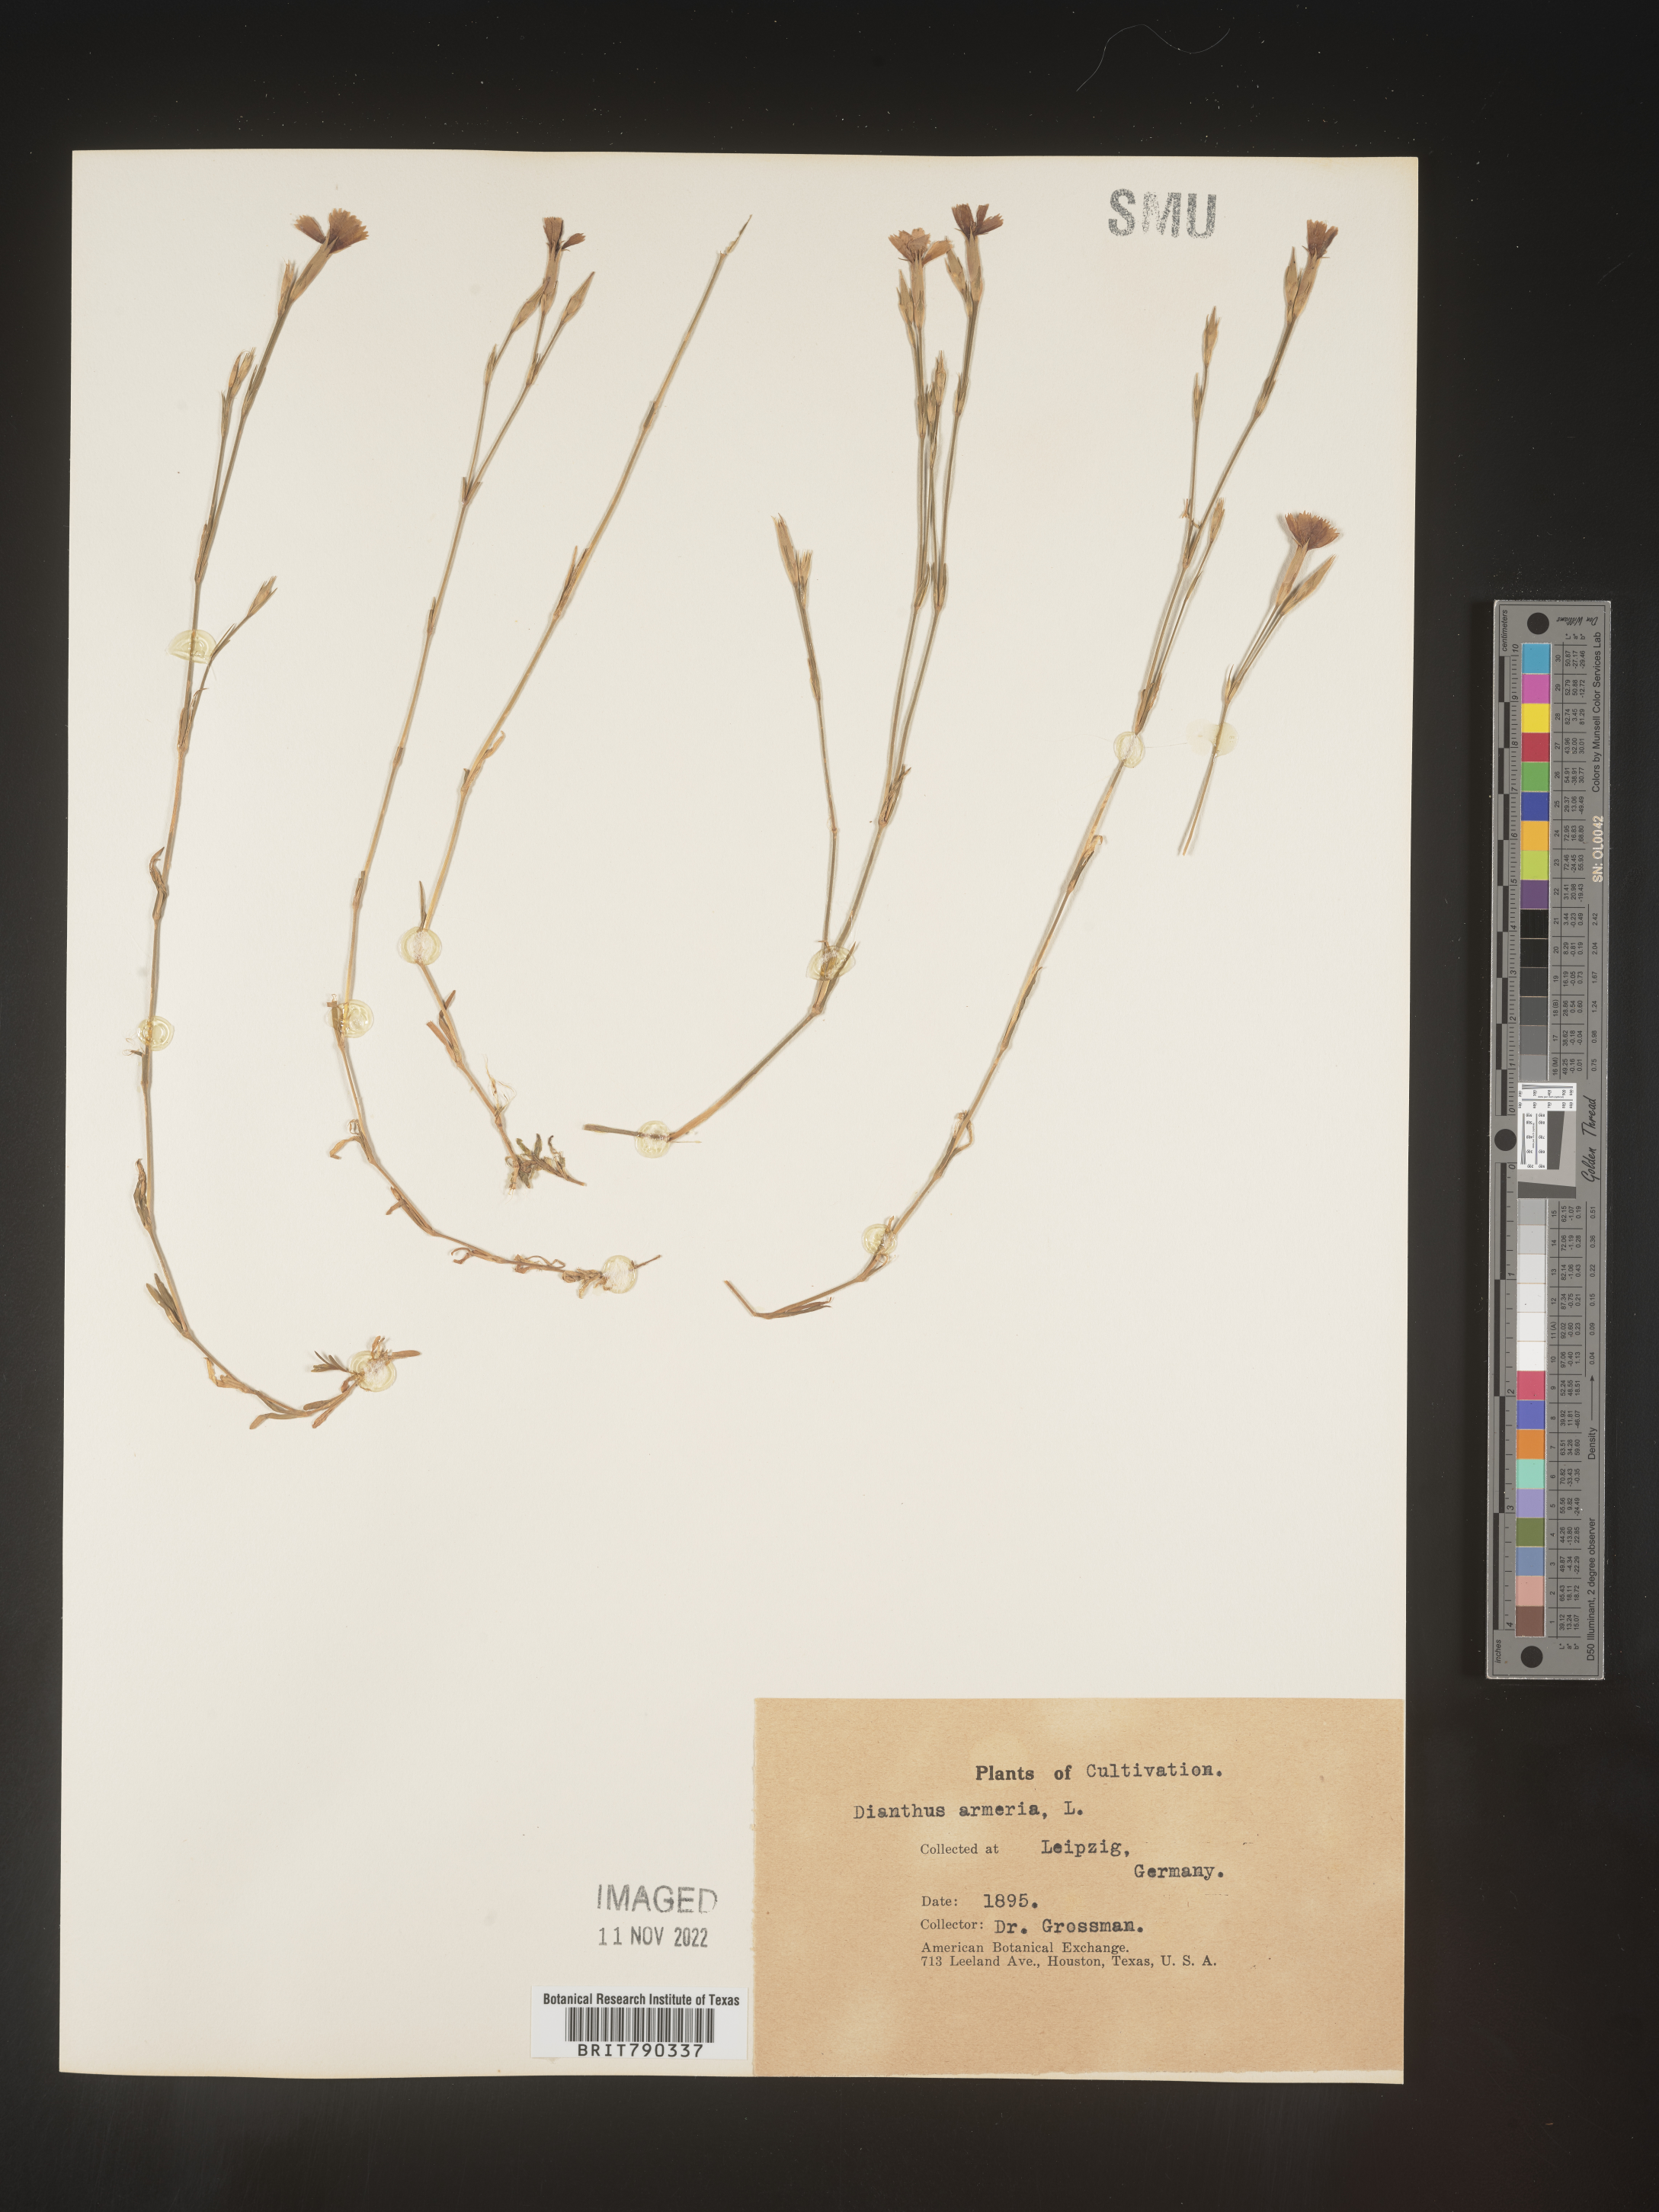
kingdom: Plantae
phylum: Tracheophyta
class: Magnoliopsida
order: Caryophyllales
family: Caryophyllaceae
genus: Dianthus
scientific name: Dianthus
